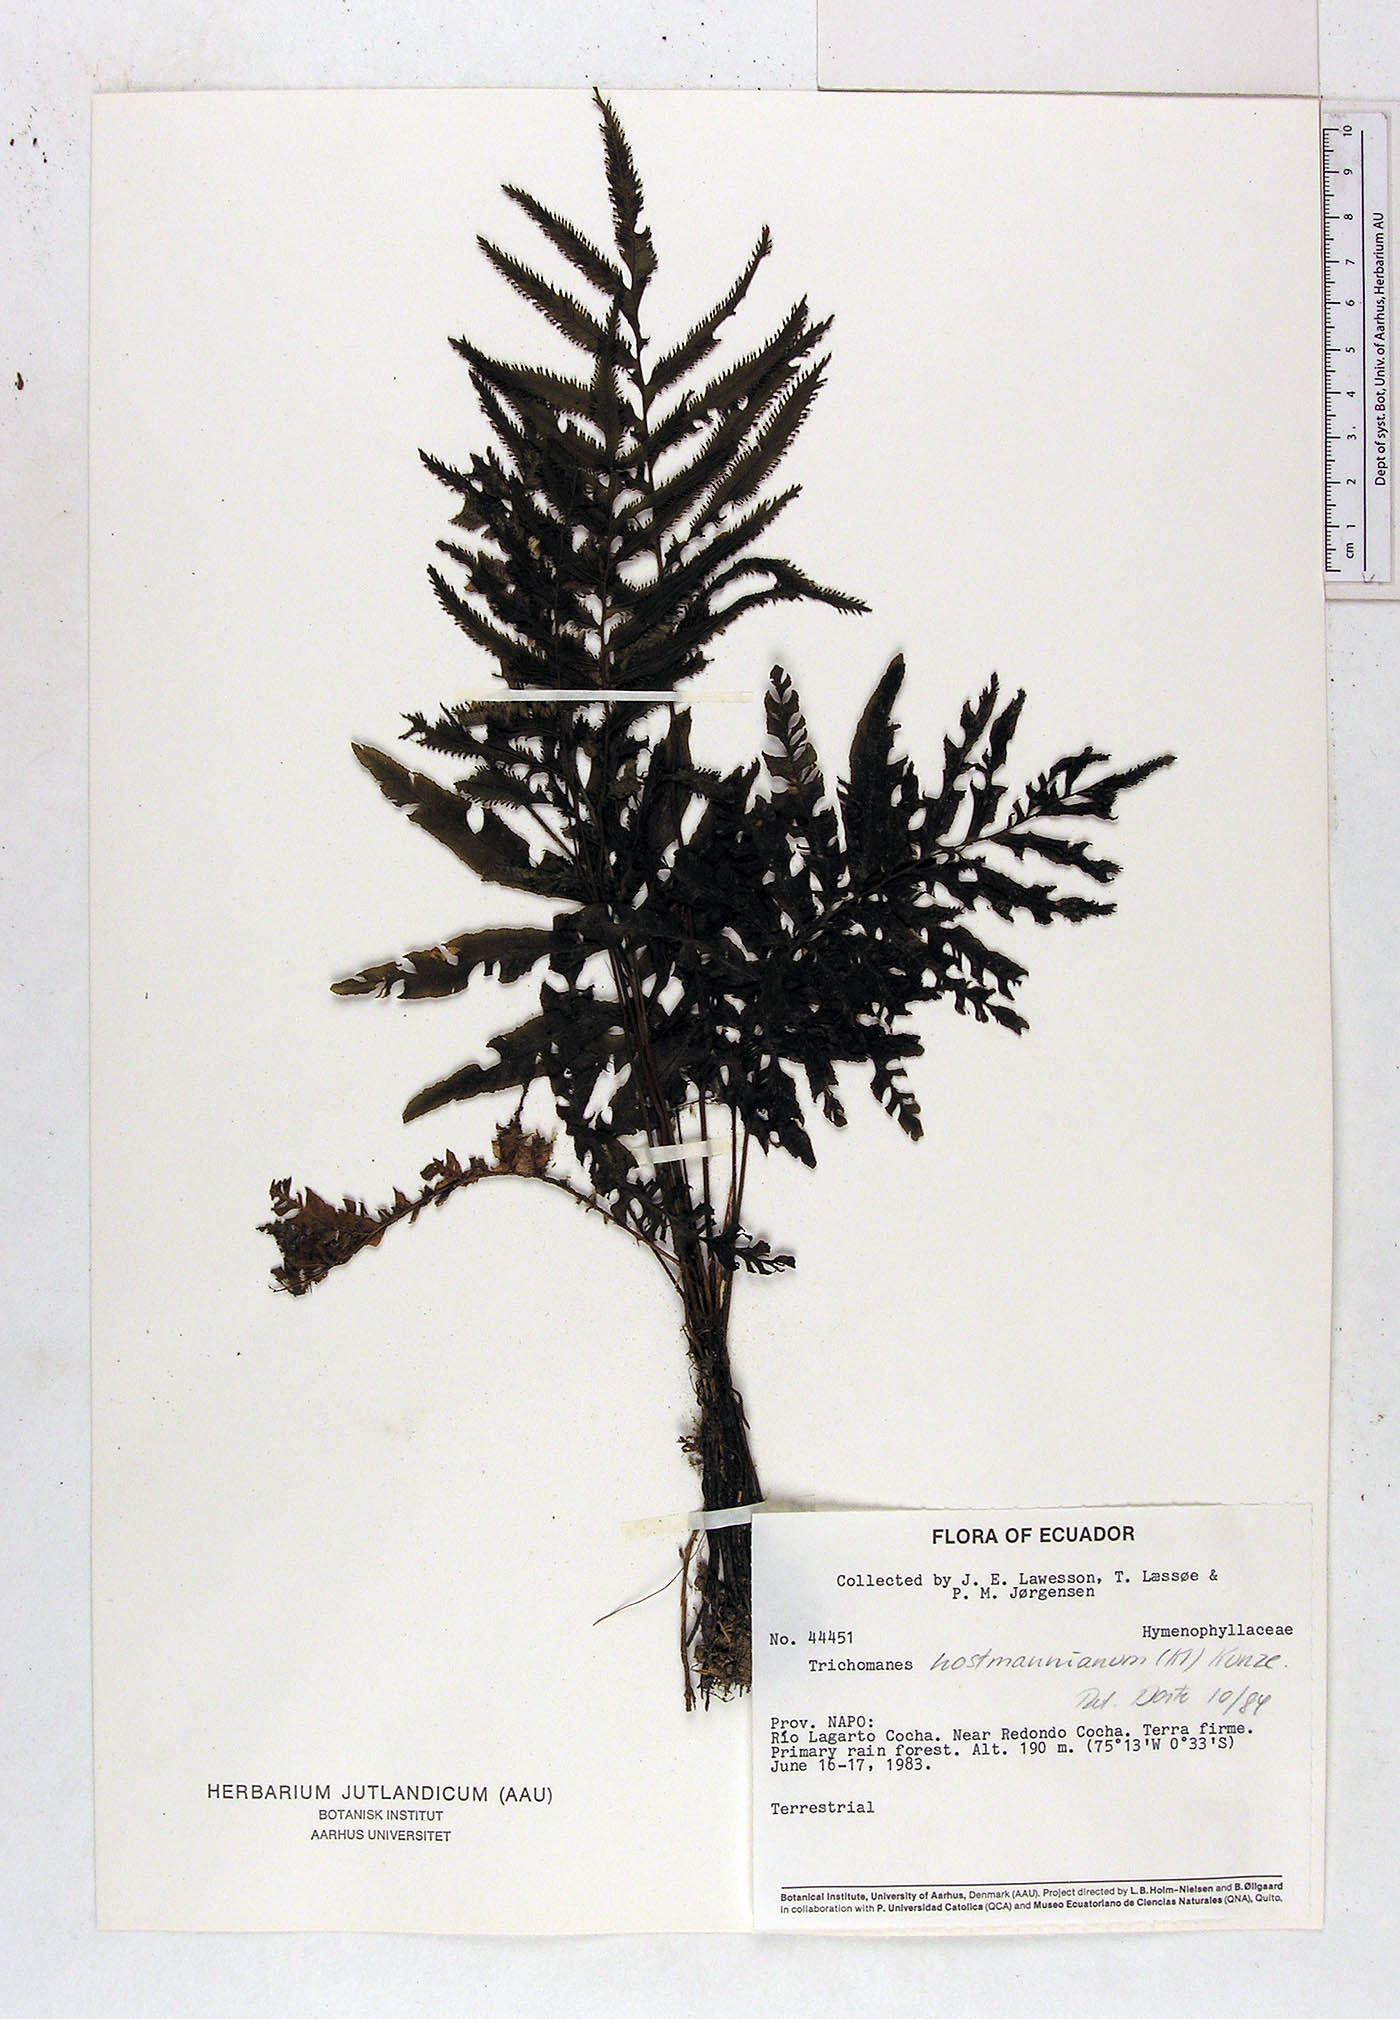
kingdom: Plantae
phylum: Tracheophyta
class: Polypodiopsida
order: Hymenophyllales
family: Hymenophyllaceae
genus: Trichomanes
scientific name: Trichomanes hostmannianum
